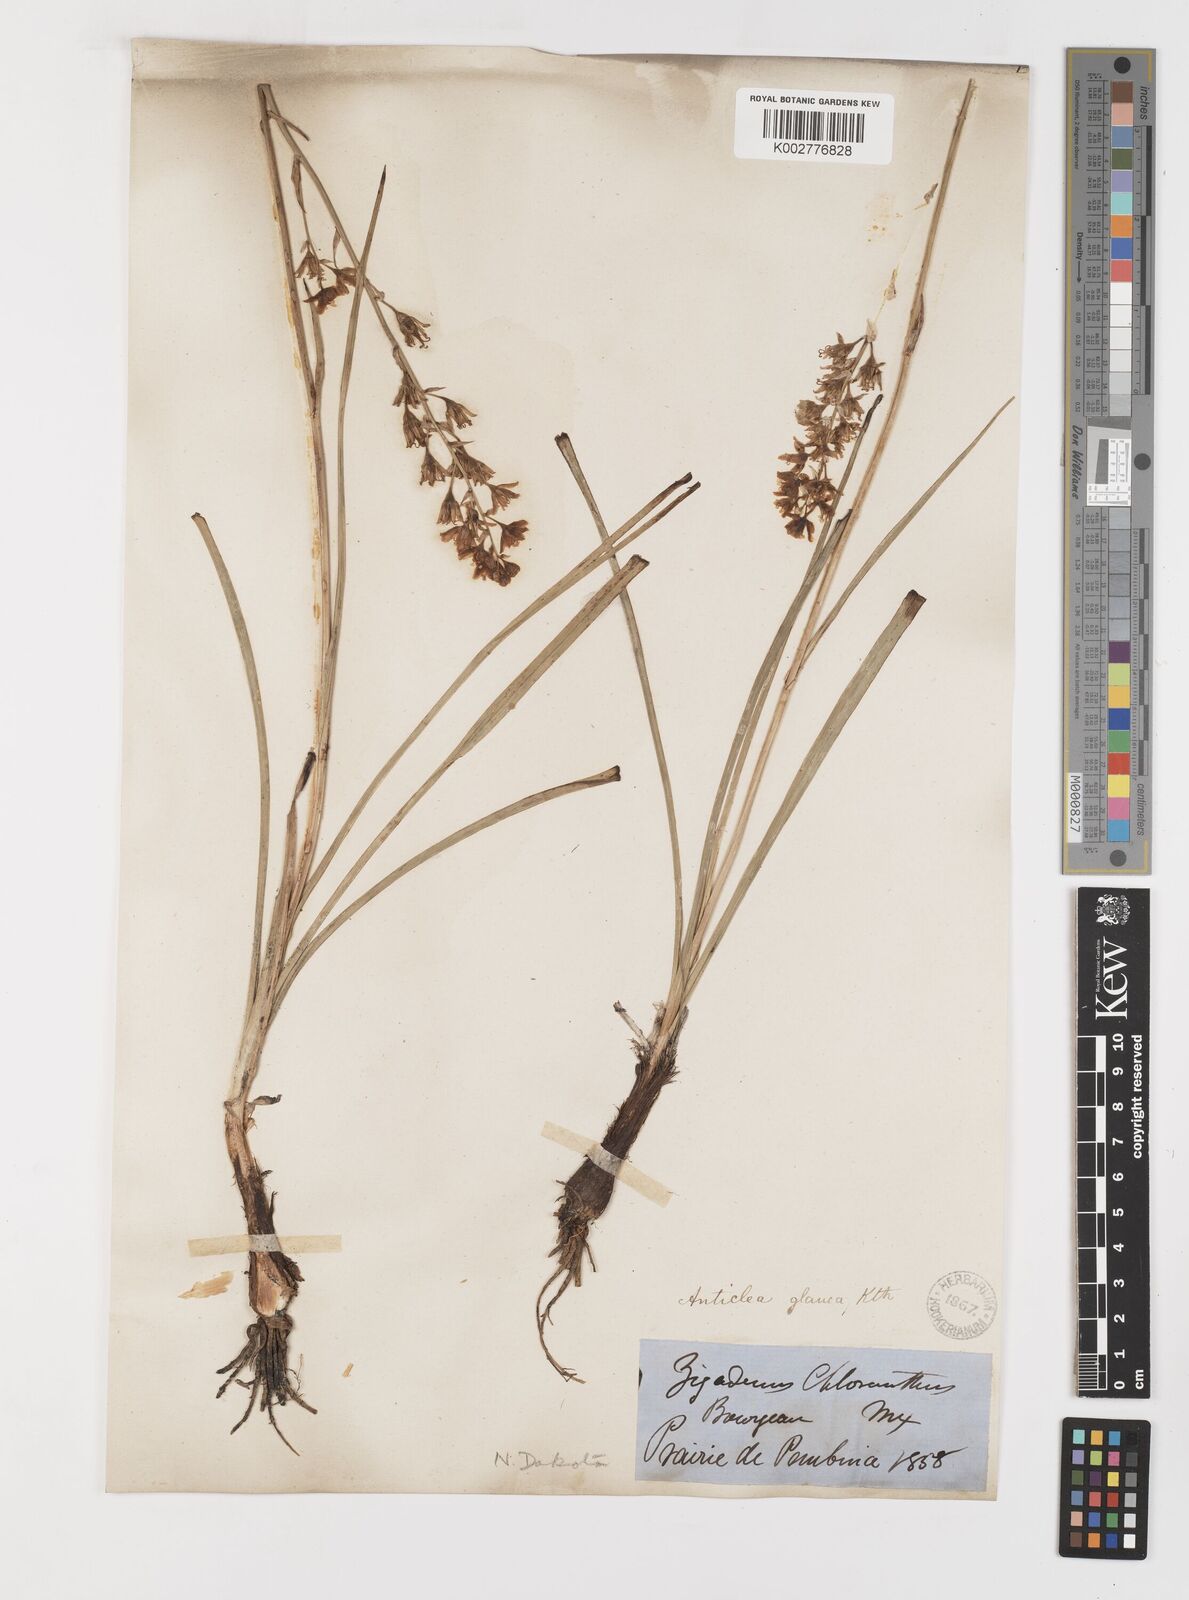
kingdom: Plantae
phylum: Tracheophyta
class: Liliopsida
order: Liliales
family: Melanthiaceae
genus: Anticlea
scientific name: Anticlea elegans
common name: Mountain death camas
